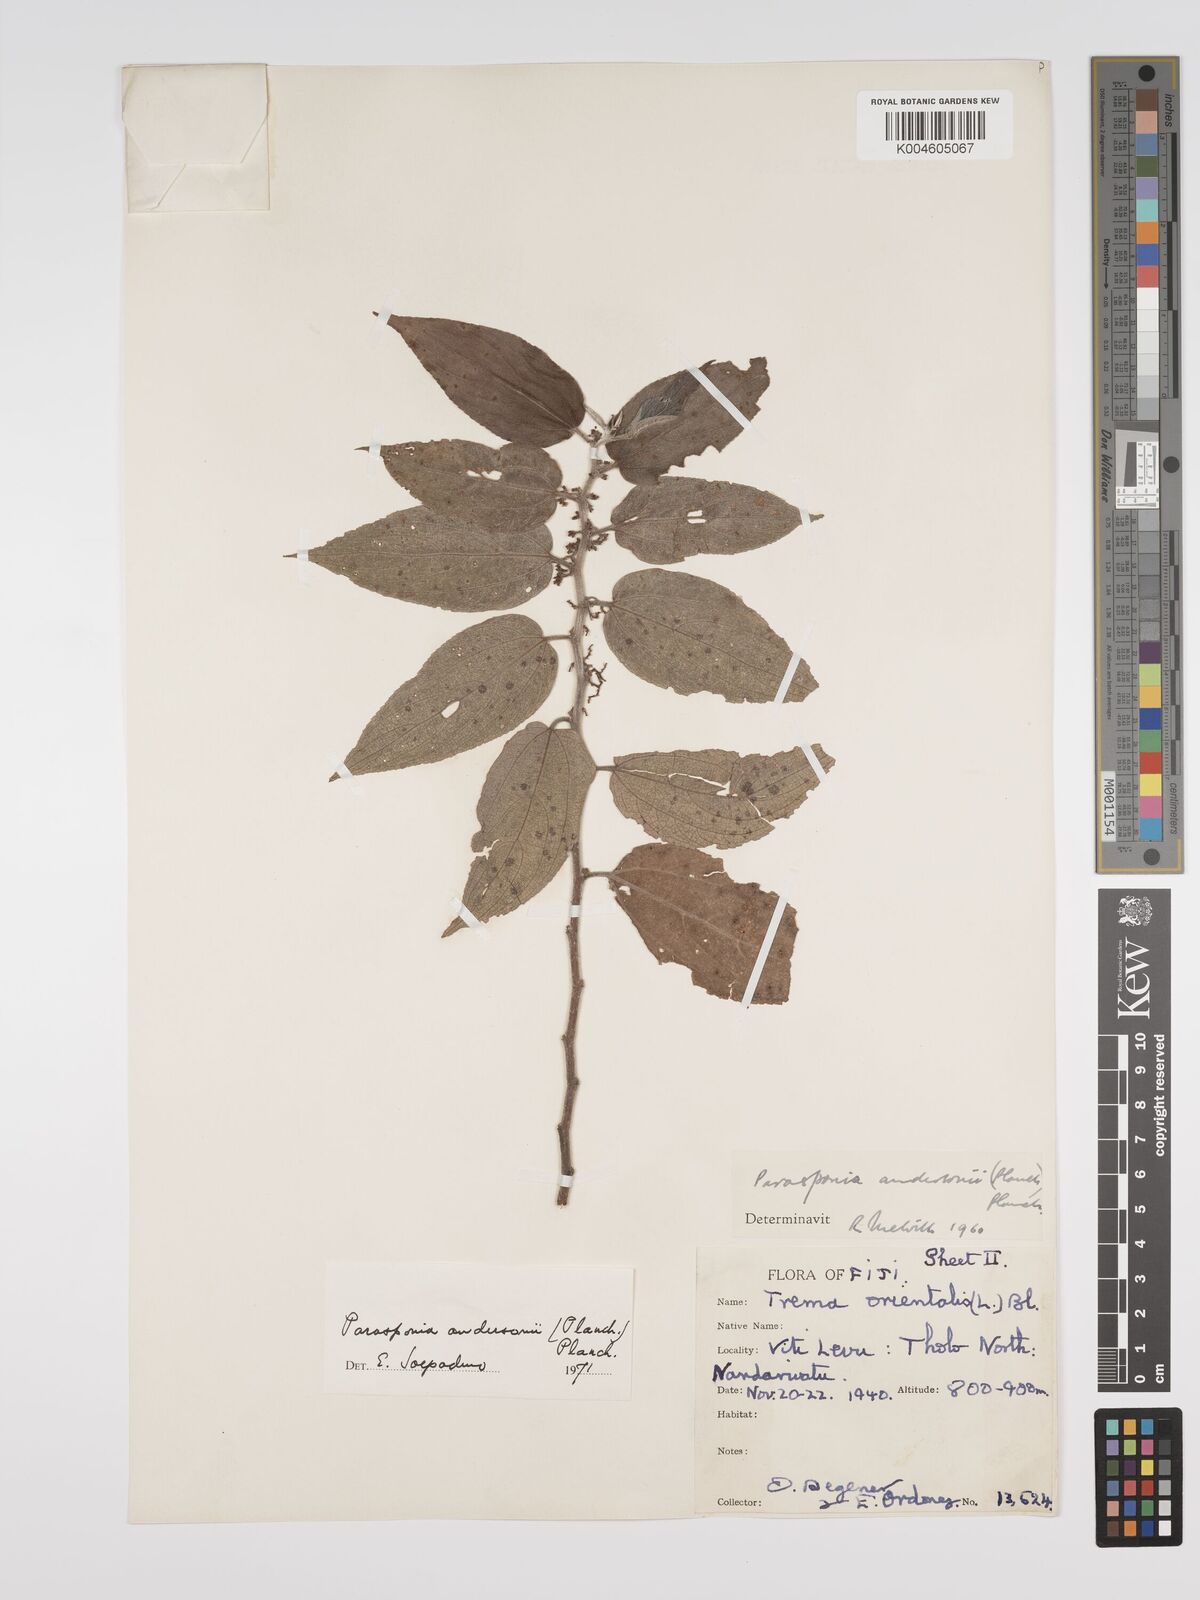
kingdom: Plantae
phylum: Tracheophyta
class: Magnoliopsida
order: Rosales
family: Cannabaceae
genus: Trema
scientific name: Trema andersonii
